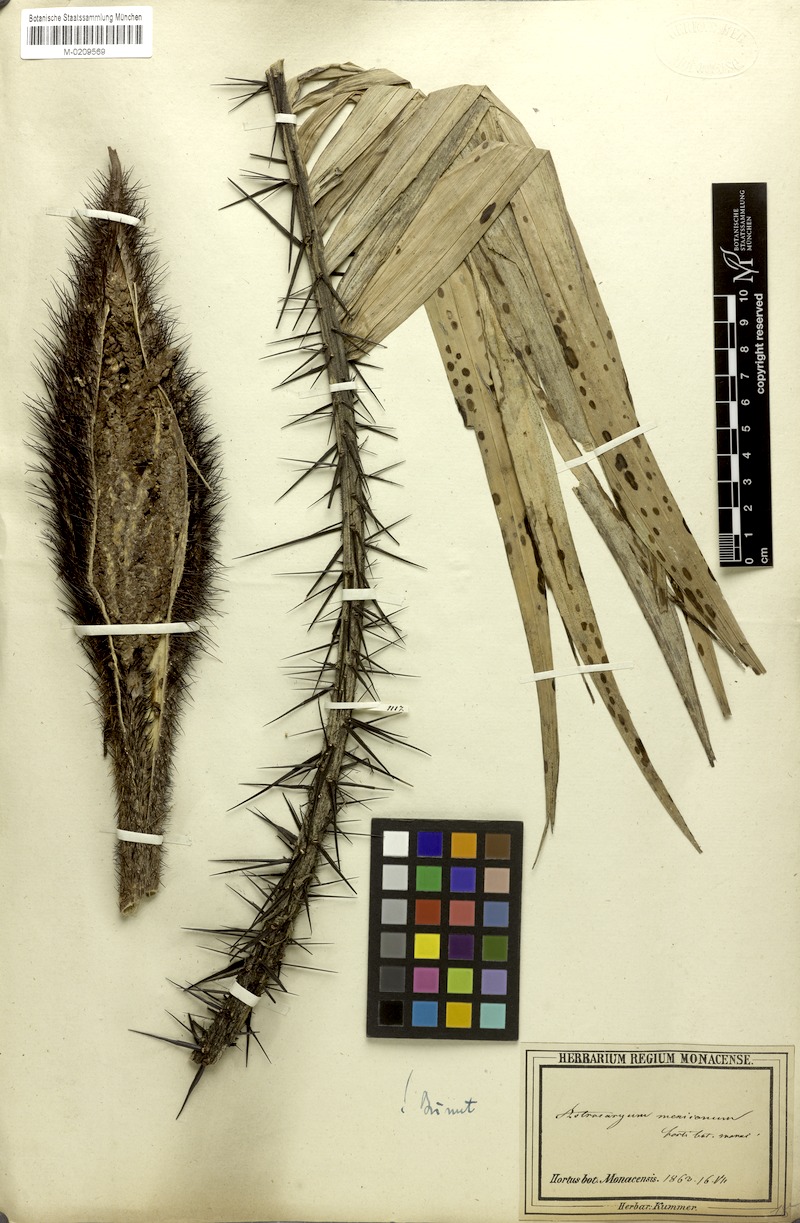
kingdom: Plantae
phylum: Tracheophyta
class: Liliopsida
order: Arecales
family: Arecaceae
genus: Astrocaryum
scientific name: Astrocaryum mexicanum
